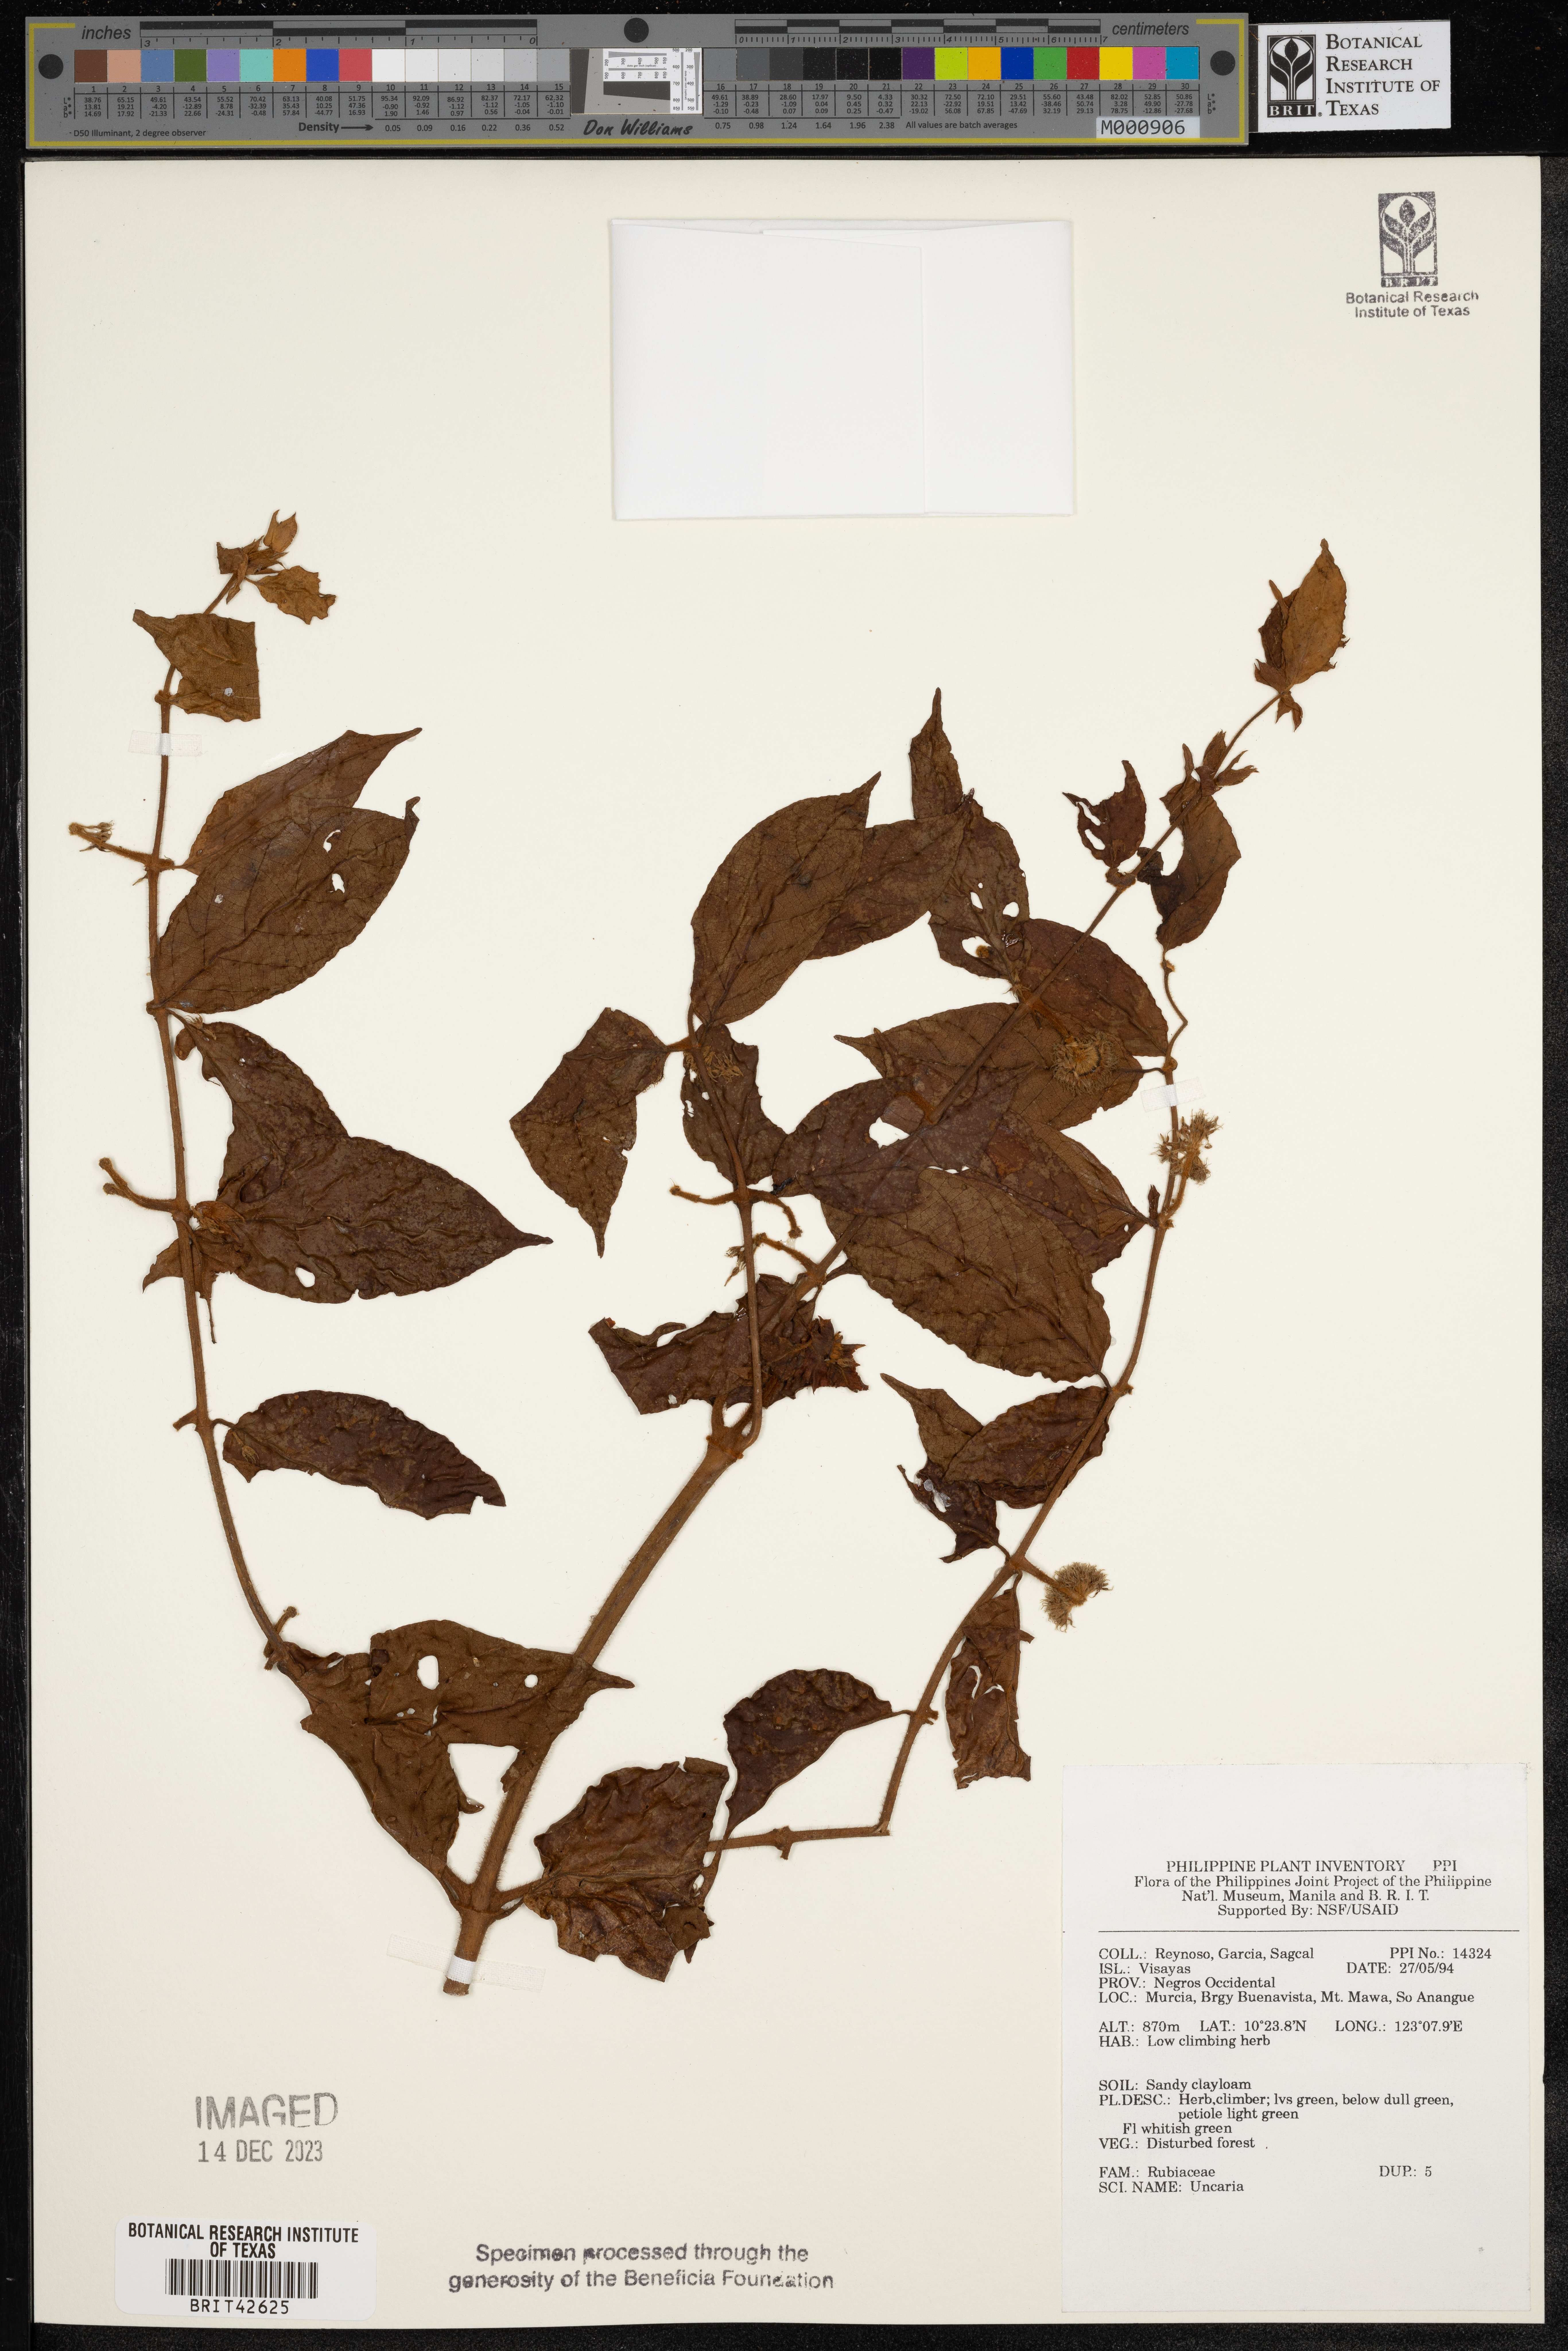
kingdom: Plantae
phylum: Tracheophyta
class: Magnoliopsida
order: Gentianales
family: Rubiaceae
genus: Uncaria
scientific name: Uncaria
